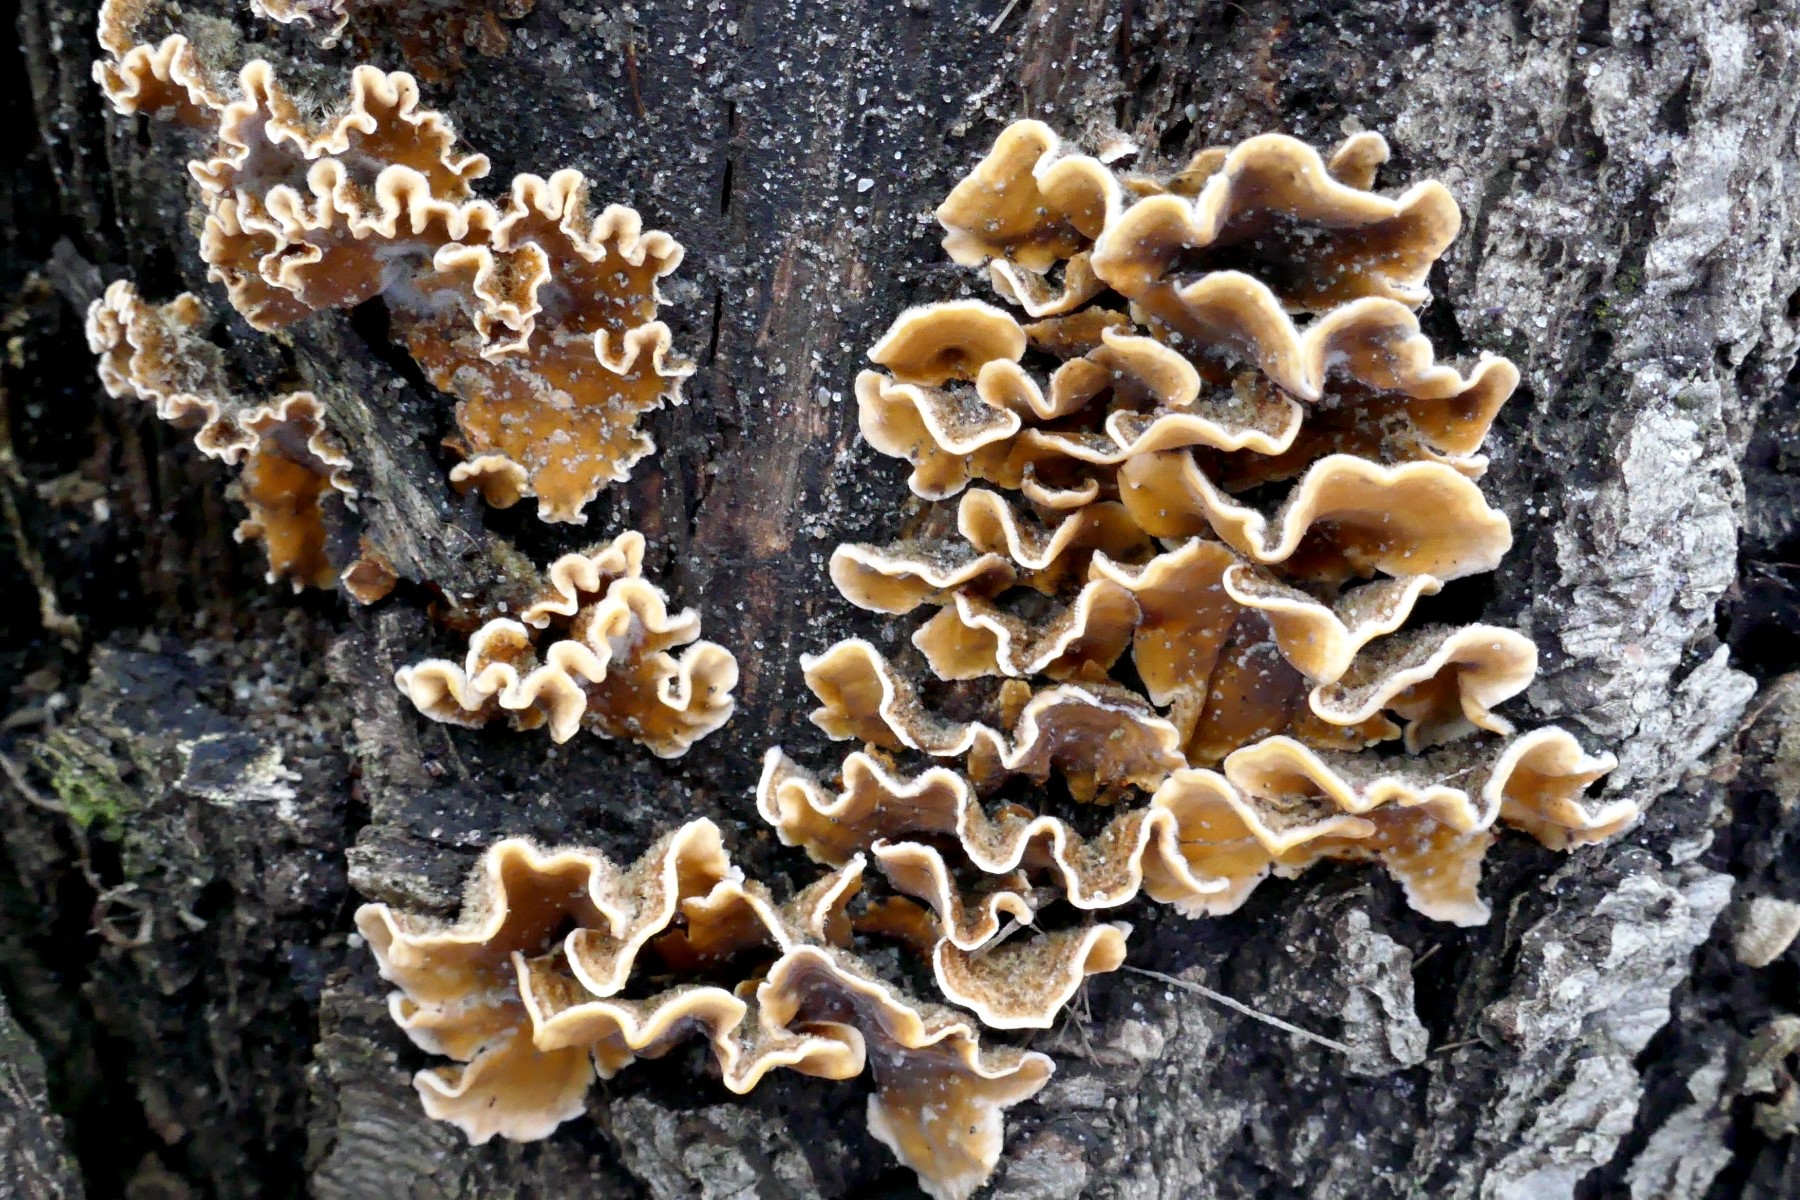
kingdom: Fungi
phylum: Basidiomycota
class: Agaricomycetes
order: Russulales
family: Stereaceae
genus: Stereum
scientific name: Stereum hirsutum
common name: håret lædersvamp
